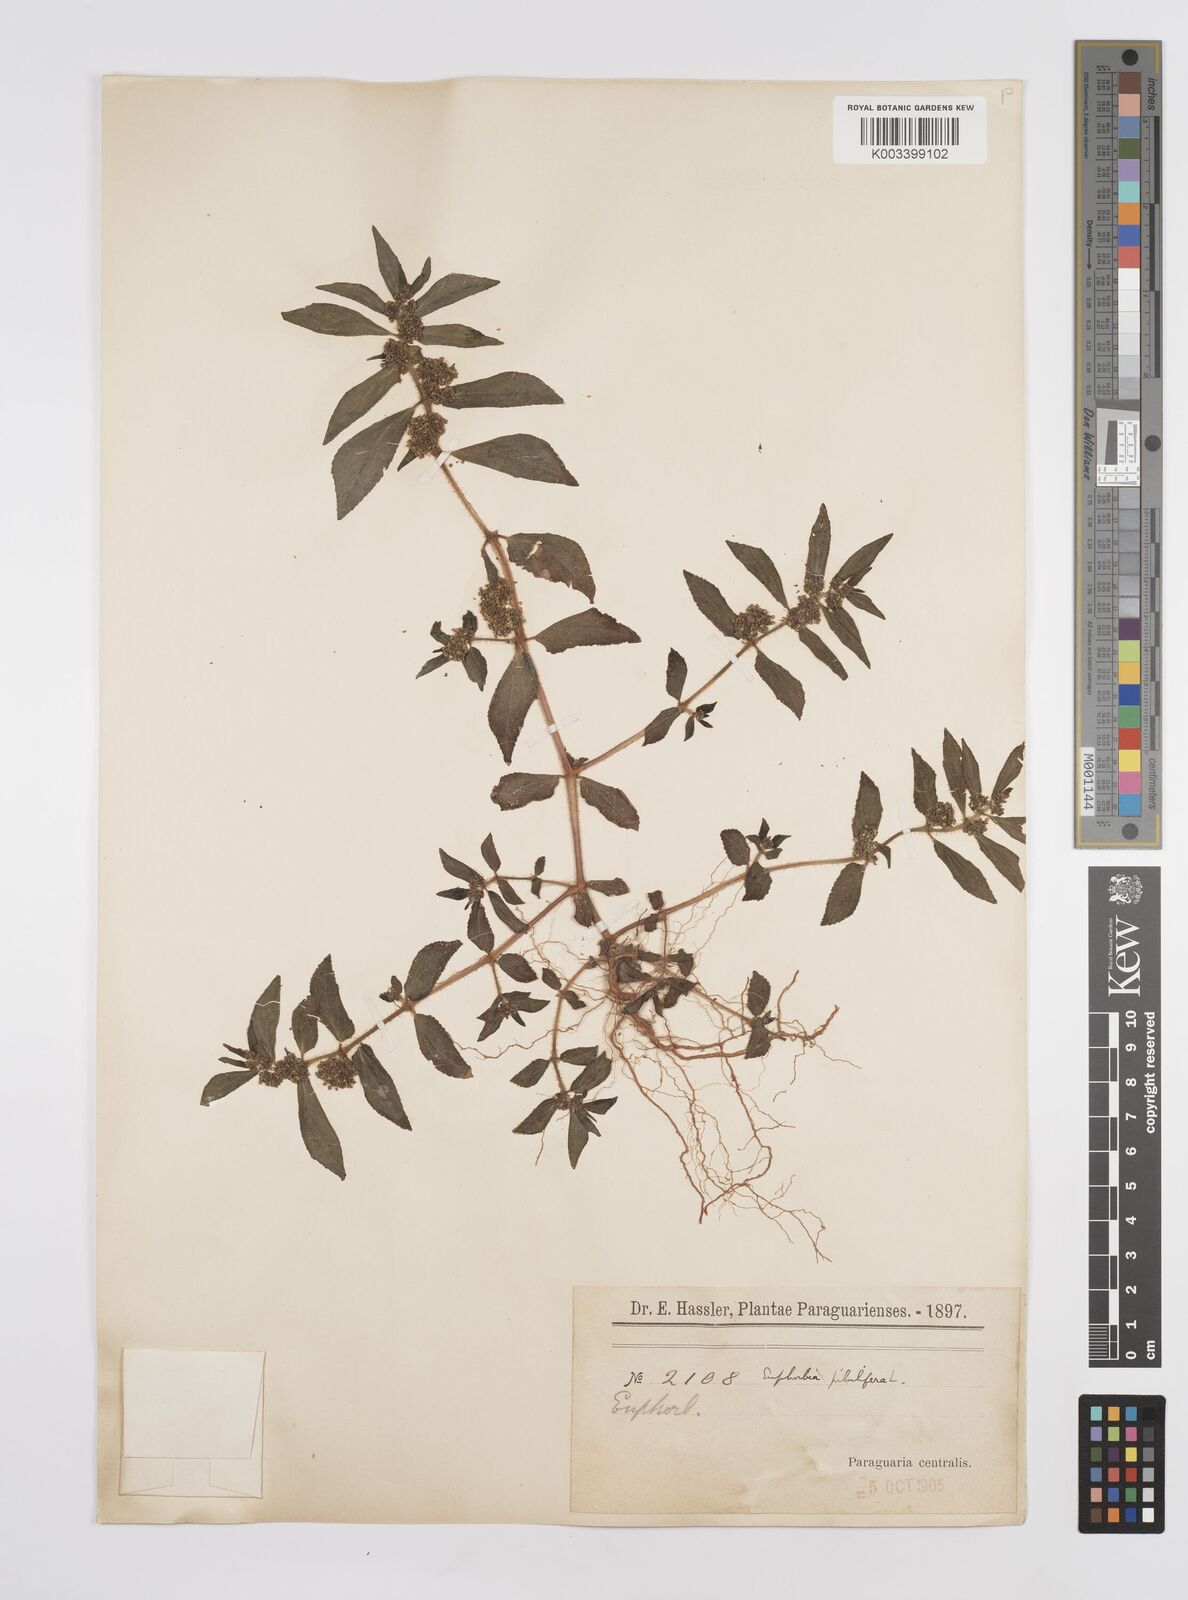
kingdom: Plantae
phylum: Tracheophyta
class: Magnoliopsida
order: Malpighiales
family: Euphorbiaceae
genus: Euphorbia
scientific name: Euphorbia hirta
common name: Pillpod sandmat
